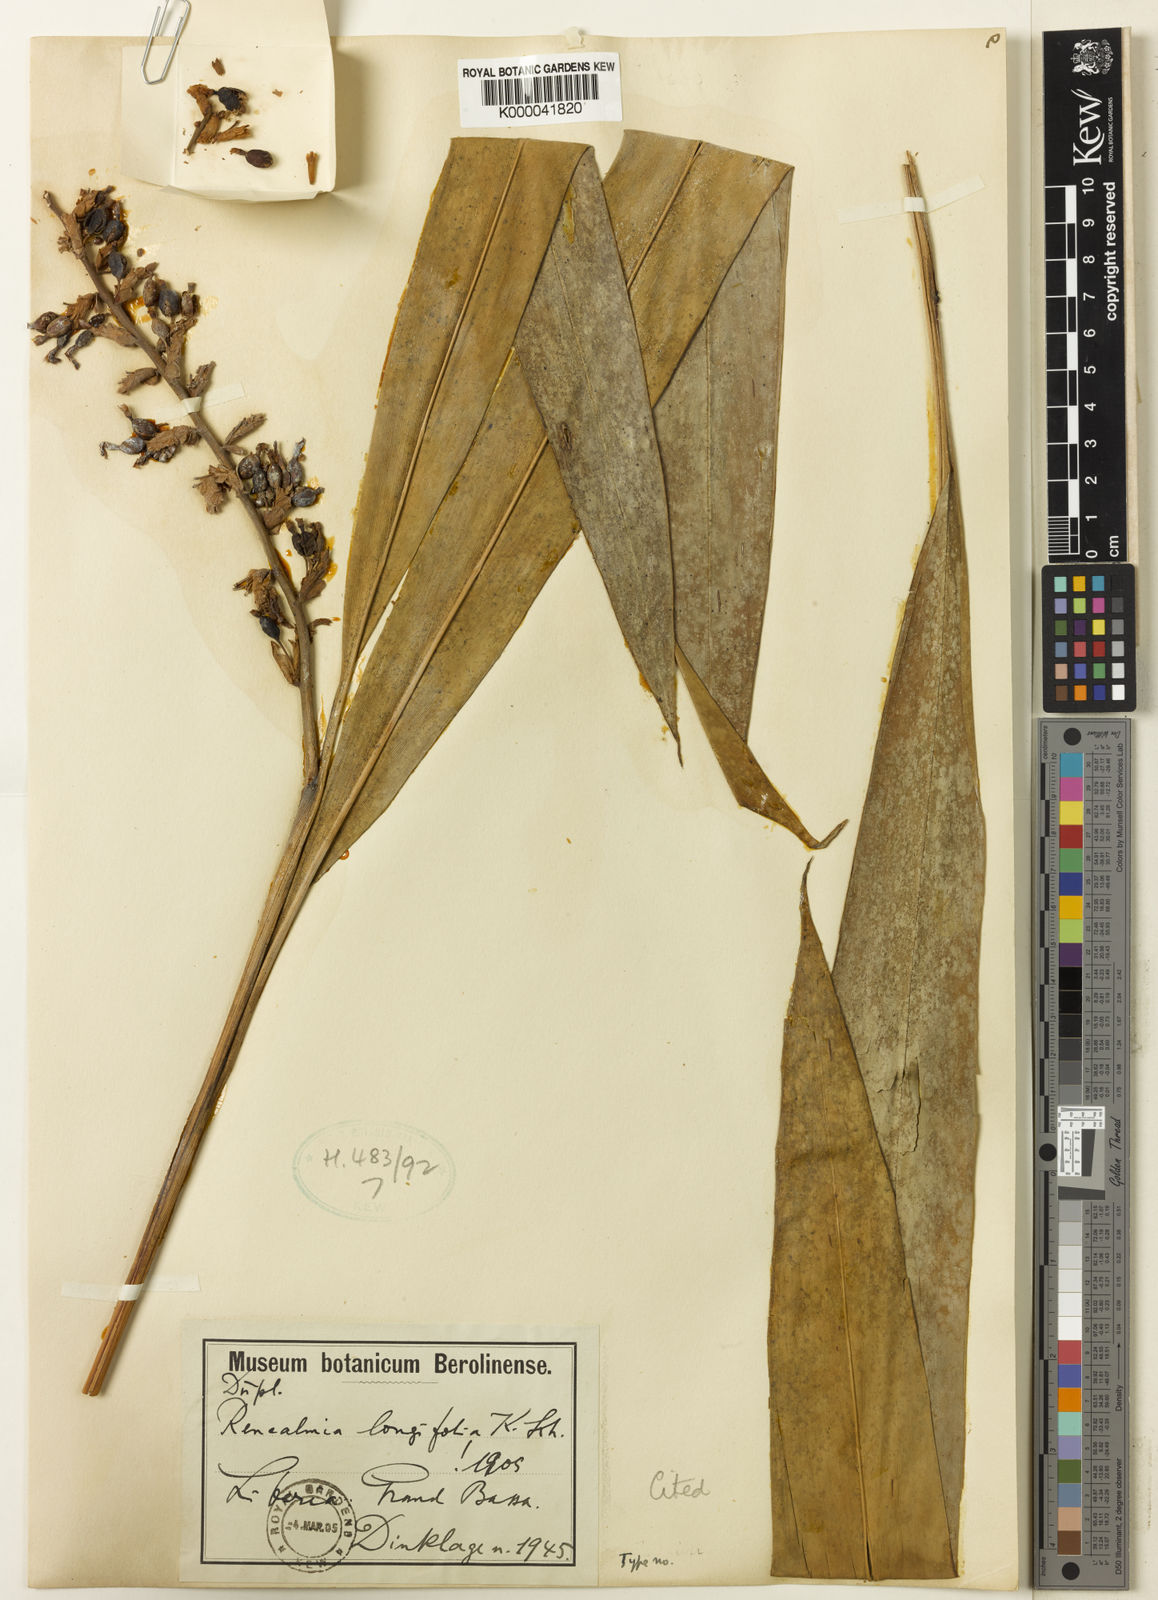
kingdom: Plantae
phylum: Tracheophyta
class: Liliopsida
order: Zingiberales
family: Zingiberaceae
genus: Renealmia
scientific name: Renealmia longifolia
